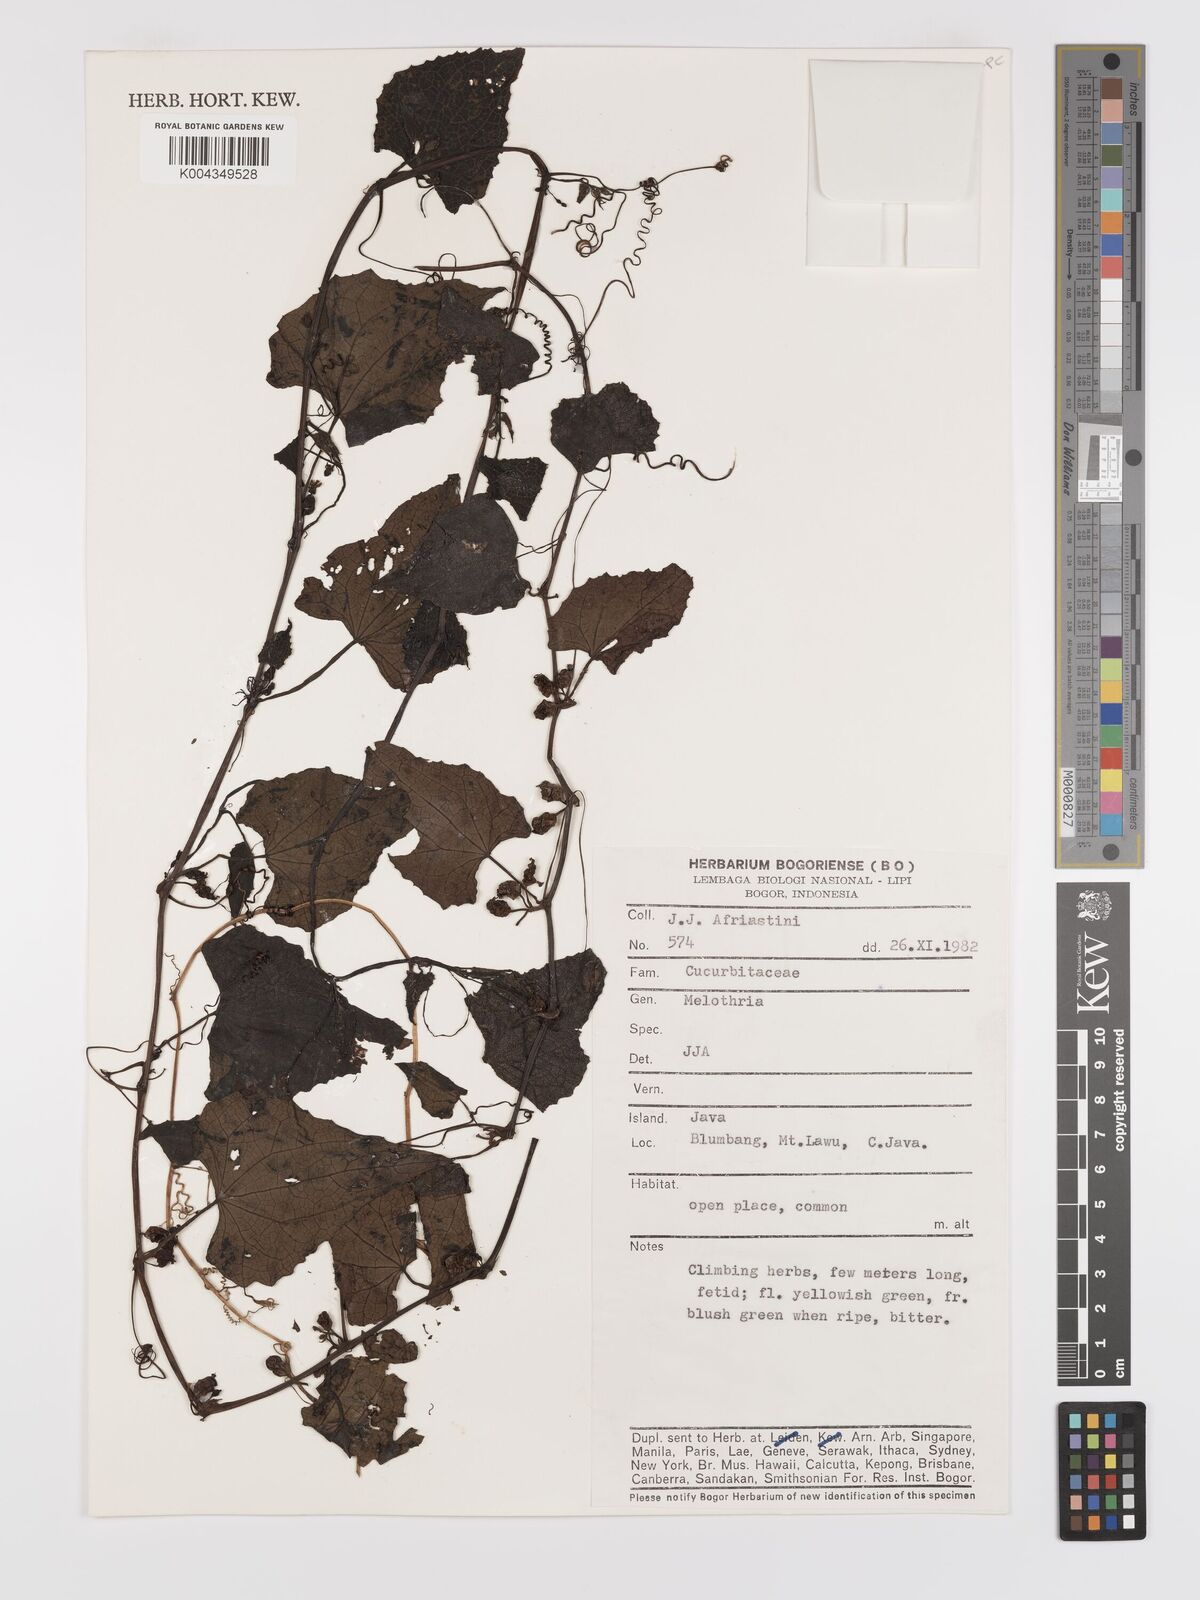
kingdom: Plantae
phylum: Tracheophyta
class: Magnoliopsida
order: Cucurbitales
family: Cucurbitaceae
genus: Zehneria
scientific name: Zehneria scabra
